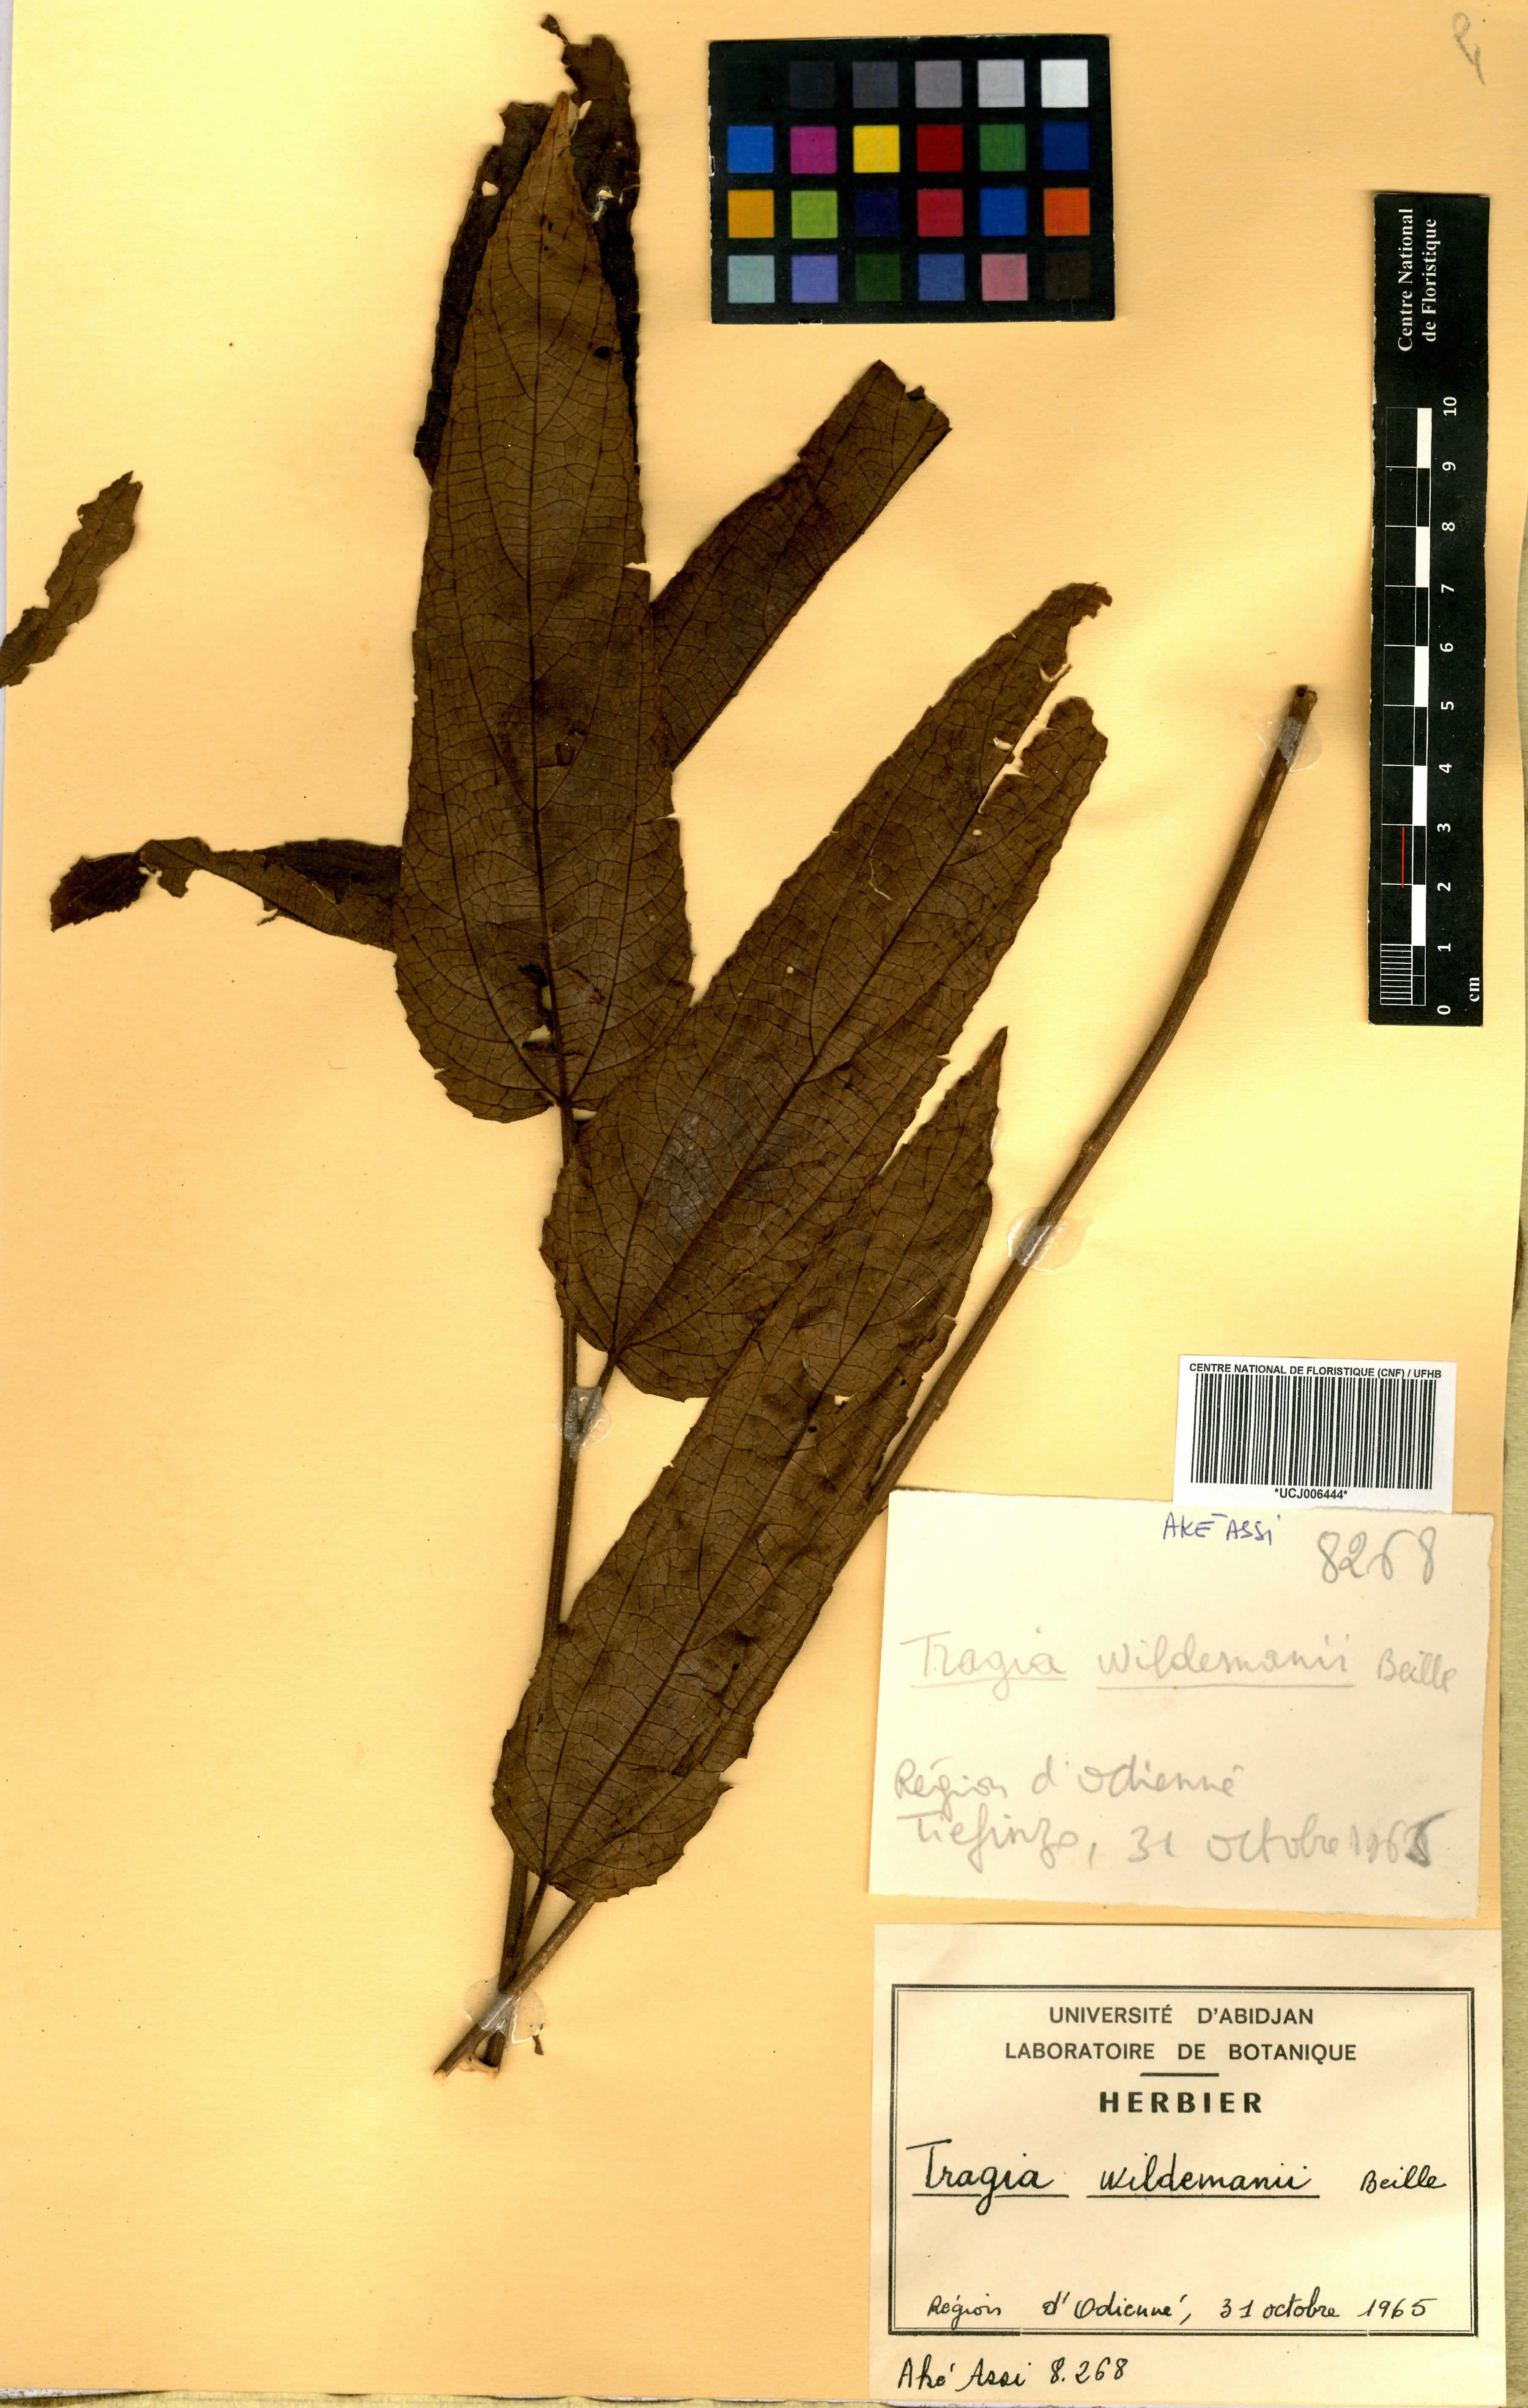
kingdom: Plantae
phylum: Tracheophyta
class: Magnoliopsida
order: Malpighiales
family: Euphorbiaceae
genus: Tragia
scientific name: Tragia wildemanii
